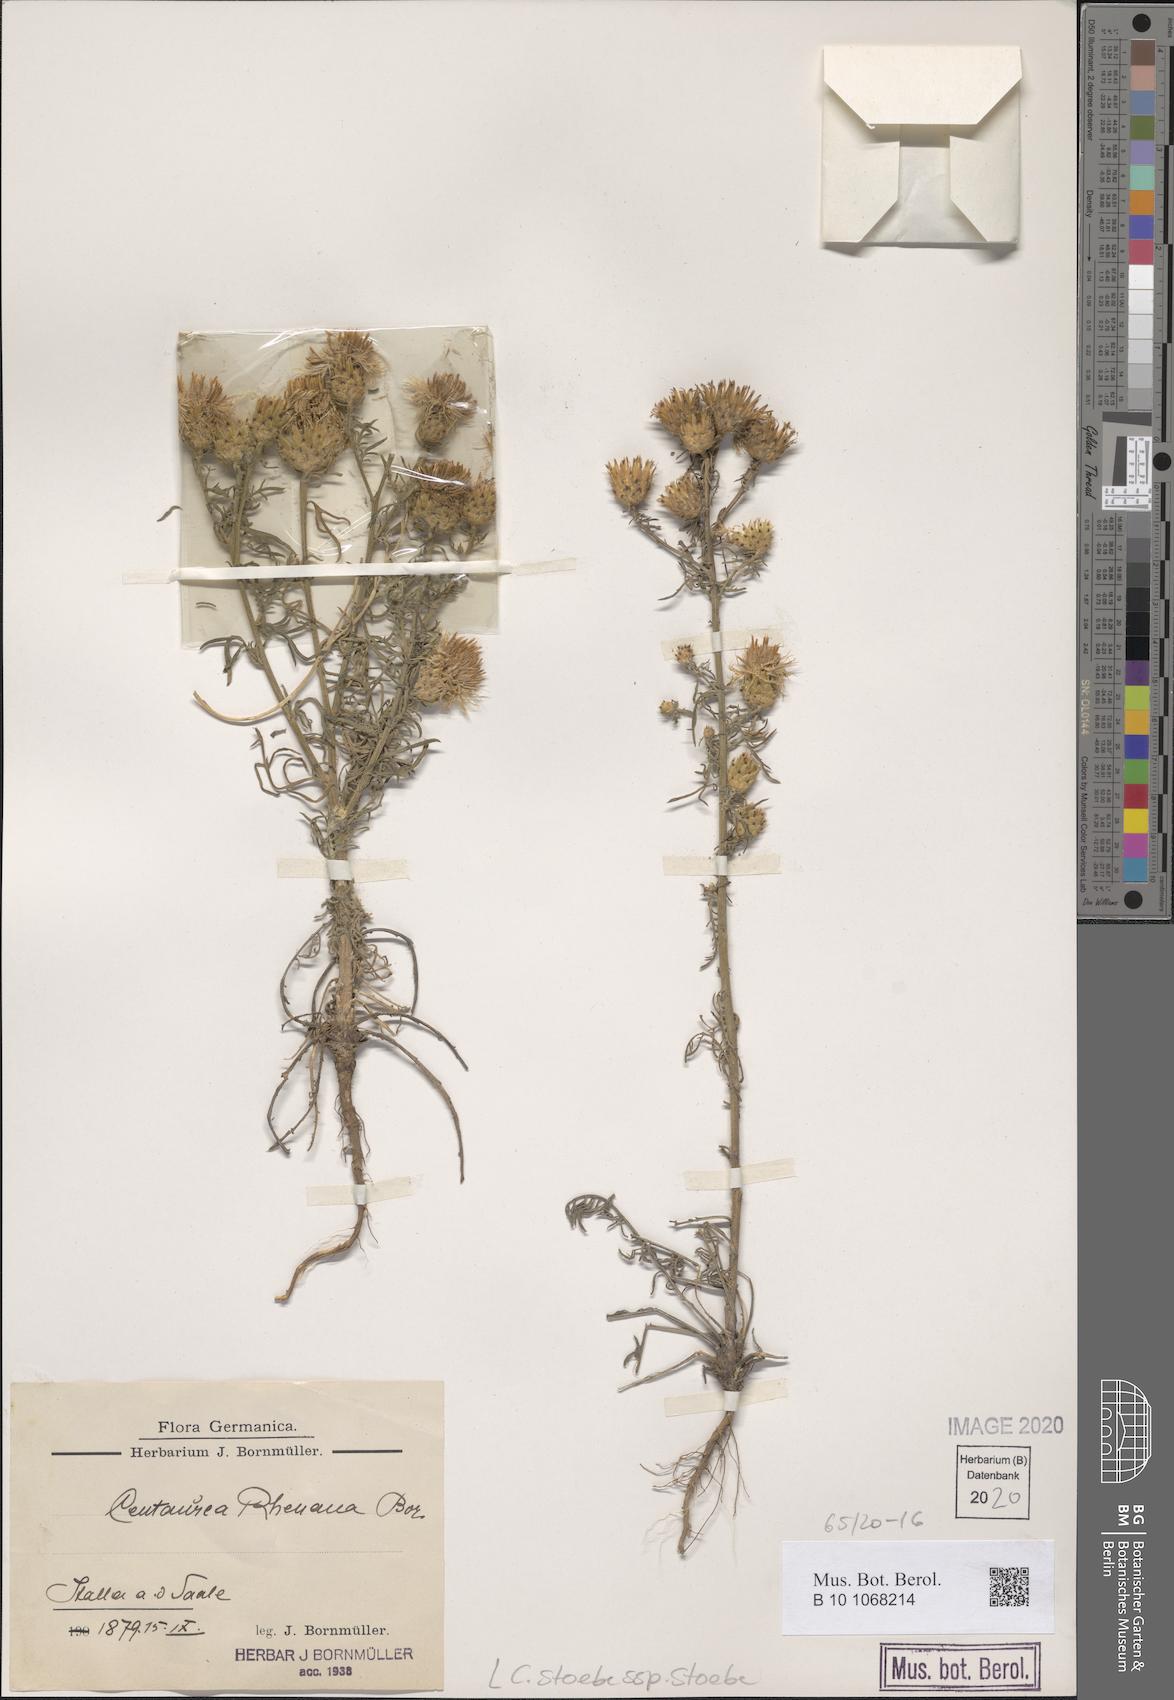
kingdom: Plantae
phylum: Tracheophyta
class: Magnoliopsida
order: Asterales
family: Asteraceae
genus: Centaurea
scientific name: Centaurea stoebe
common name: Spotted knapweed
